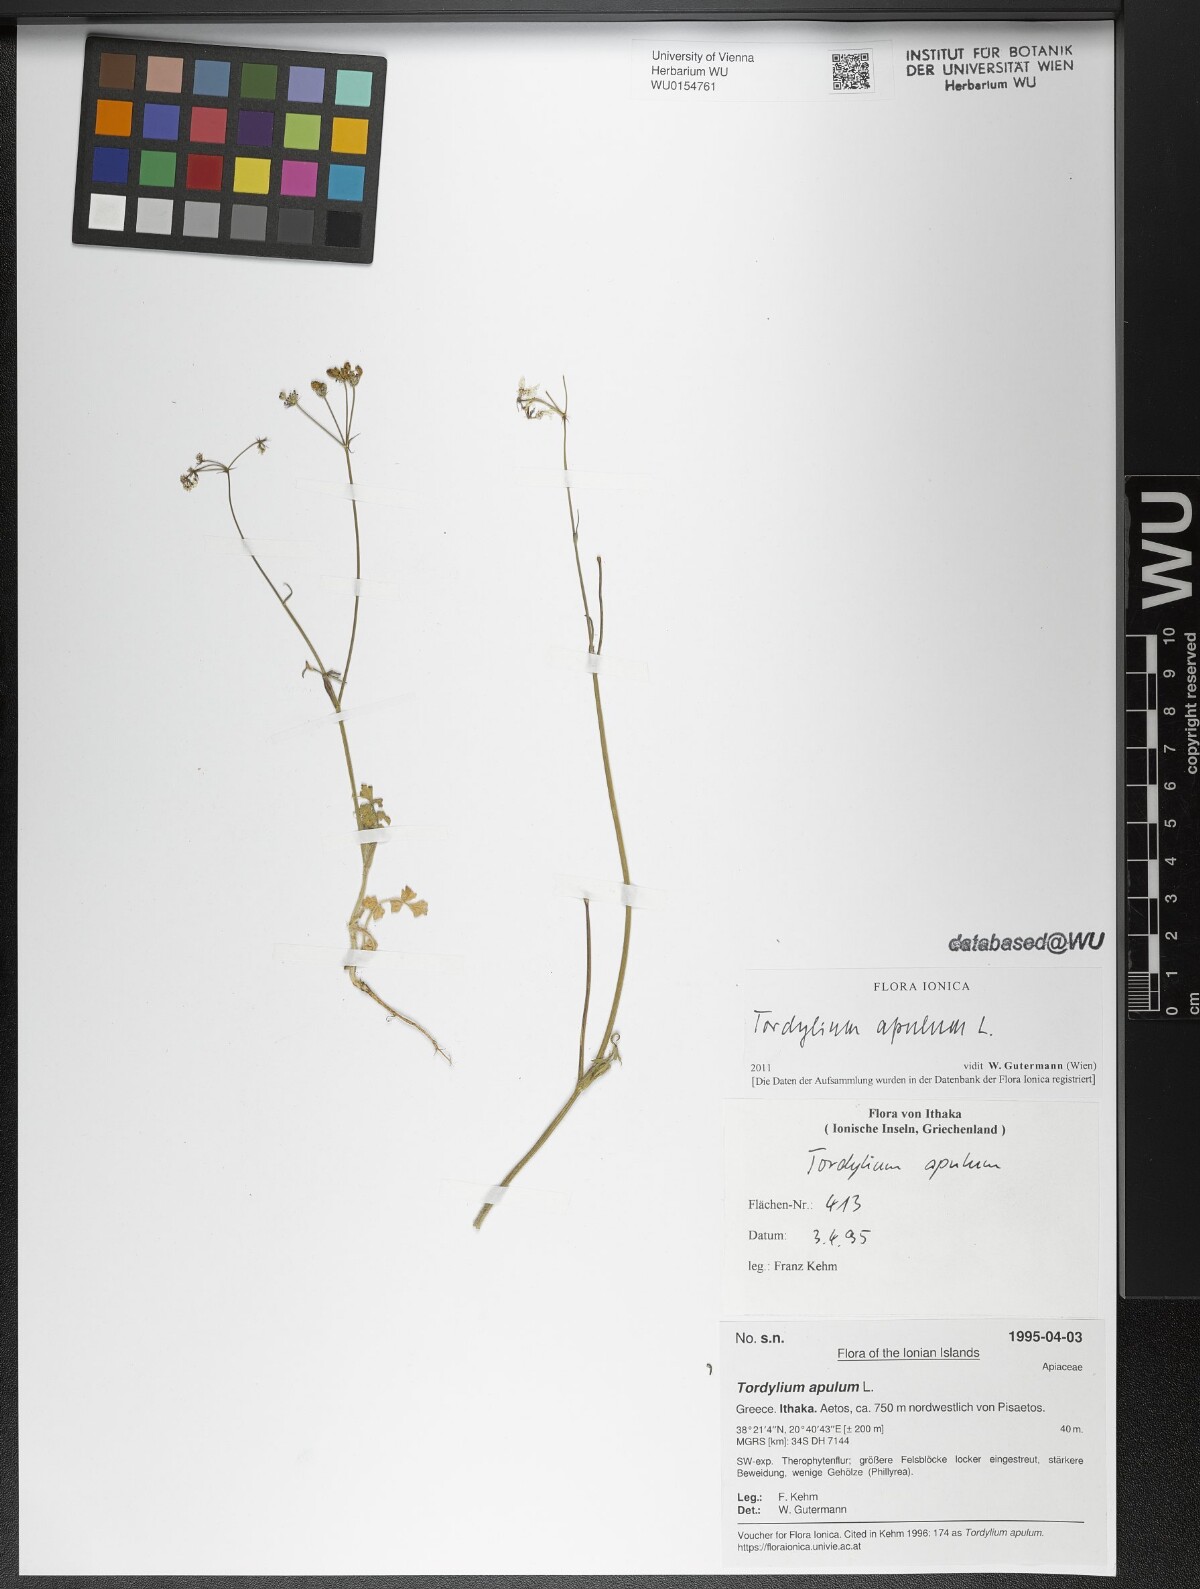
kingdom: Plantae
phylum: Tracheophyta
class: Magnoliopsida
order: Apiales
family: Apiaceae
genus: Tordylium
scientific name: Tordylium apulum
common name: Mediterranean hartwort
